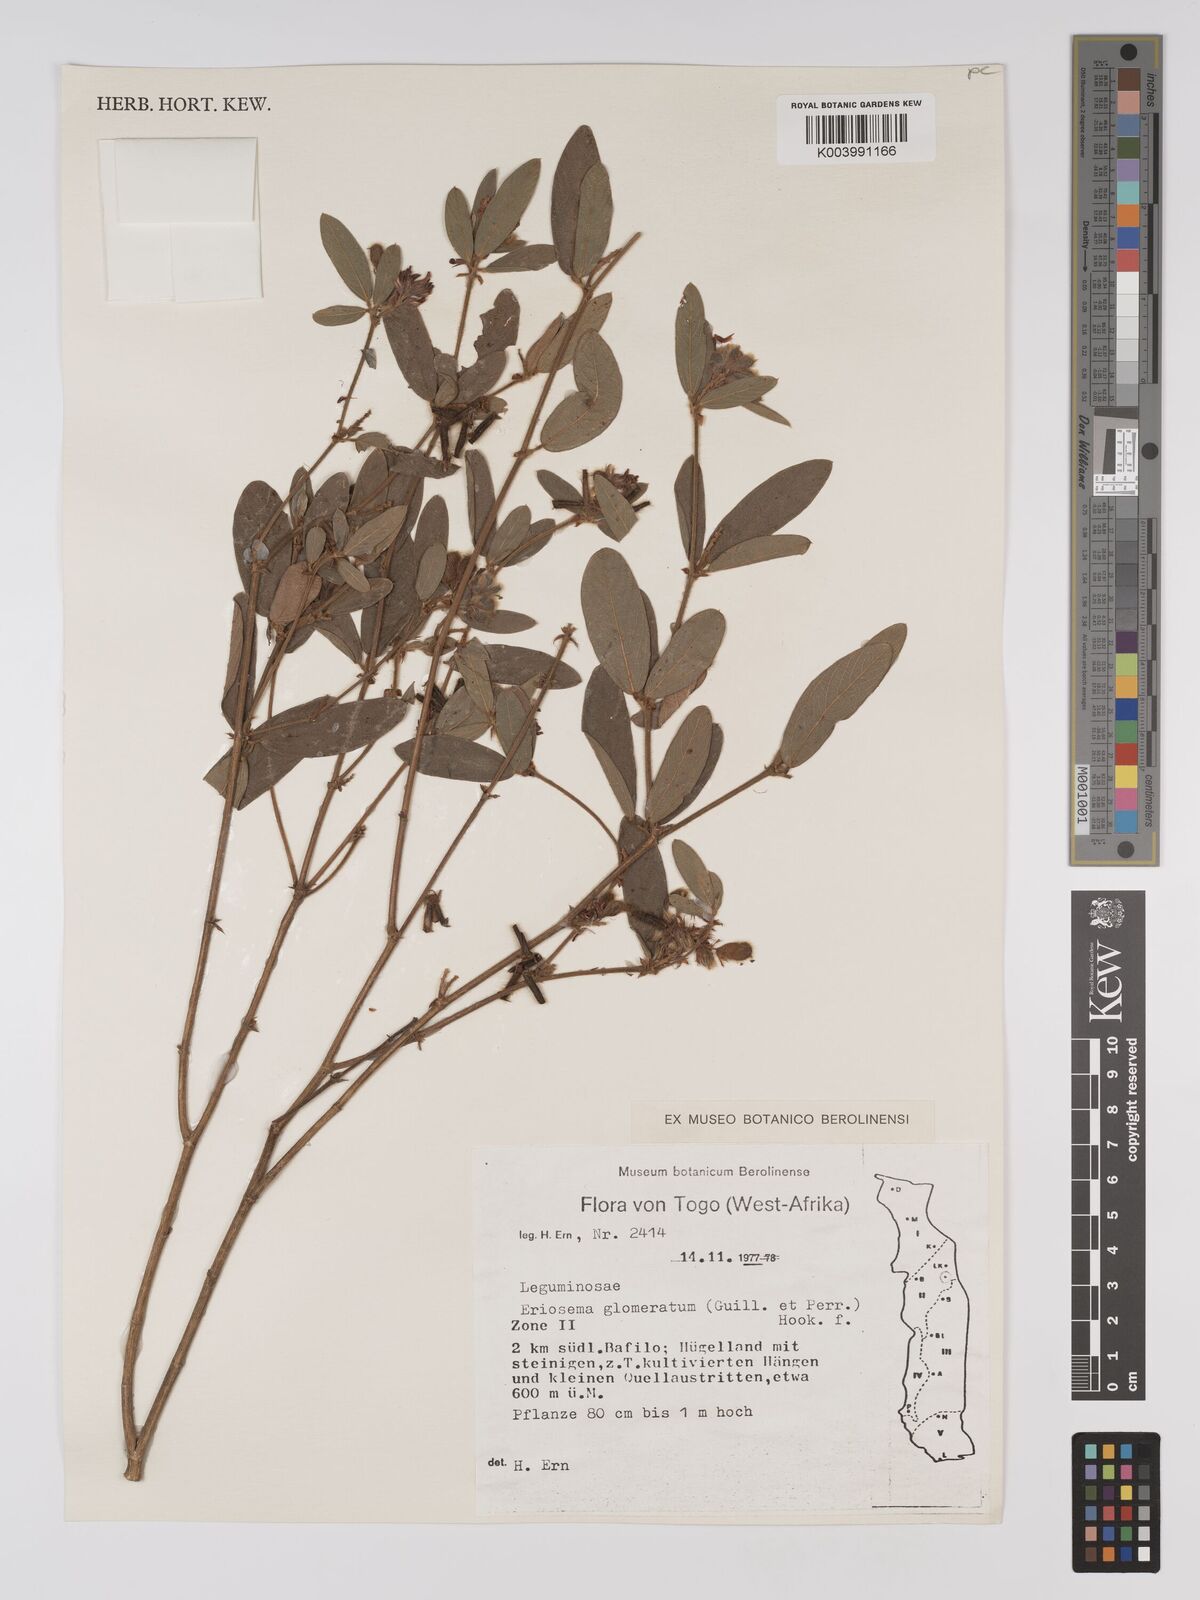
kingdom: Plantae
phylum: Tracheophyta
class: Magnoliopsida
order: Fabales
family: Fabaceae
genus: Eriosema
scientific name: Eriosema glomeratum
